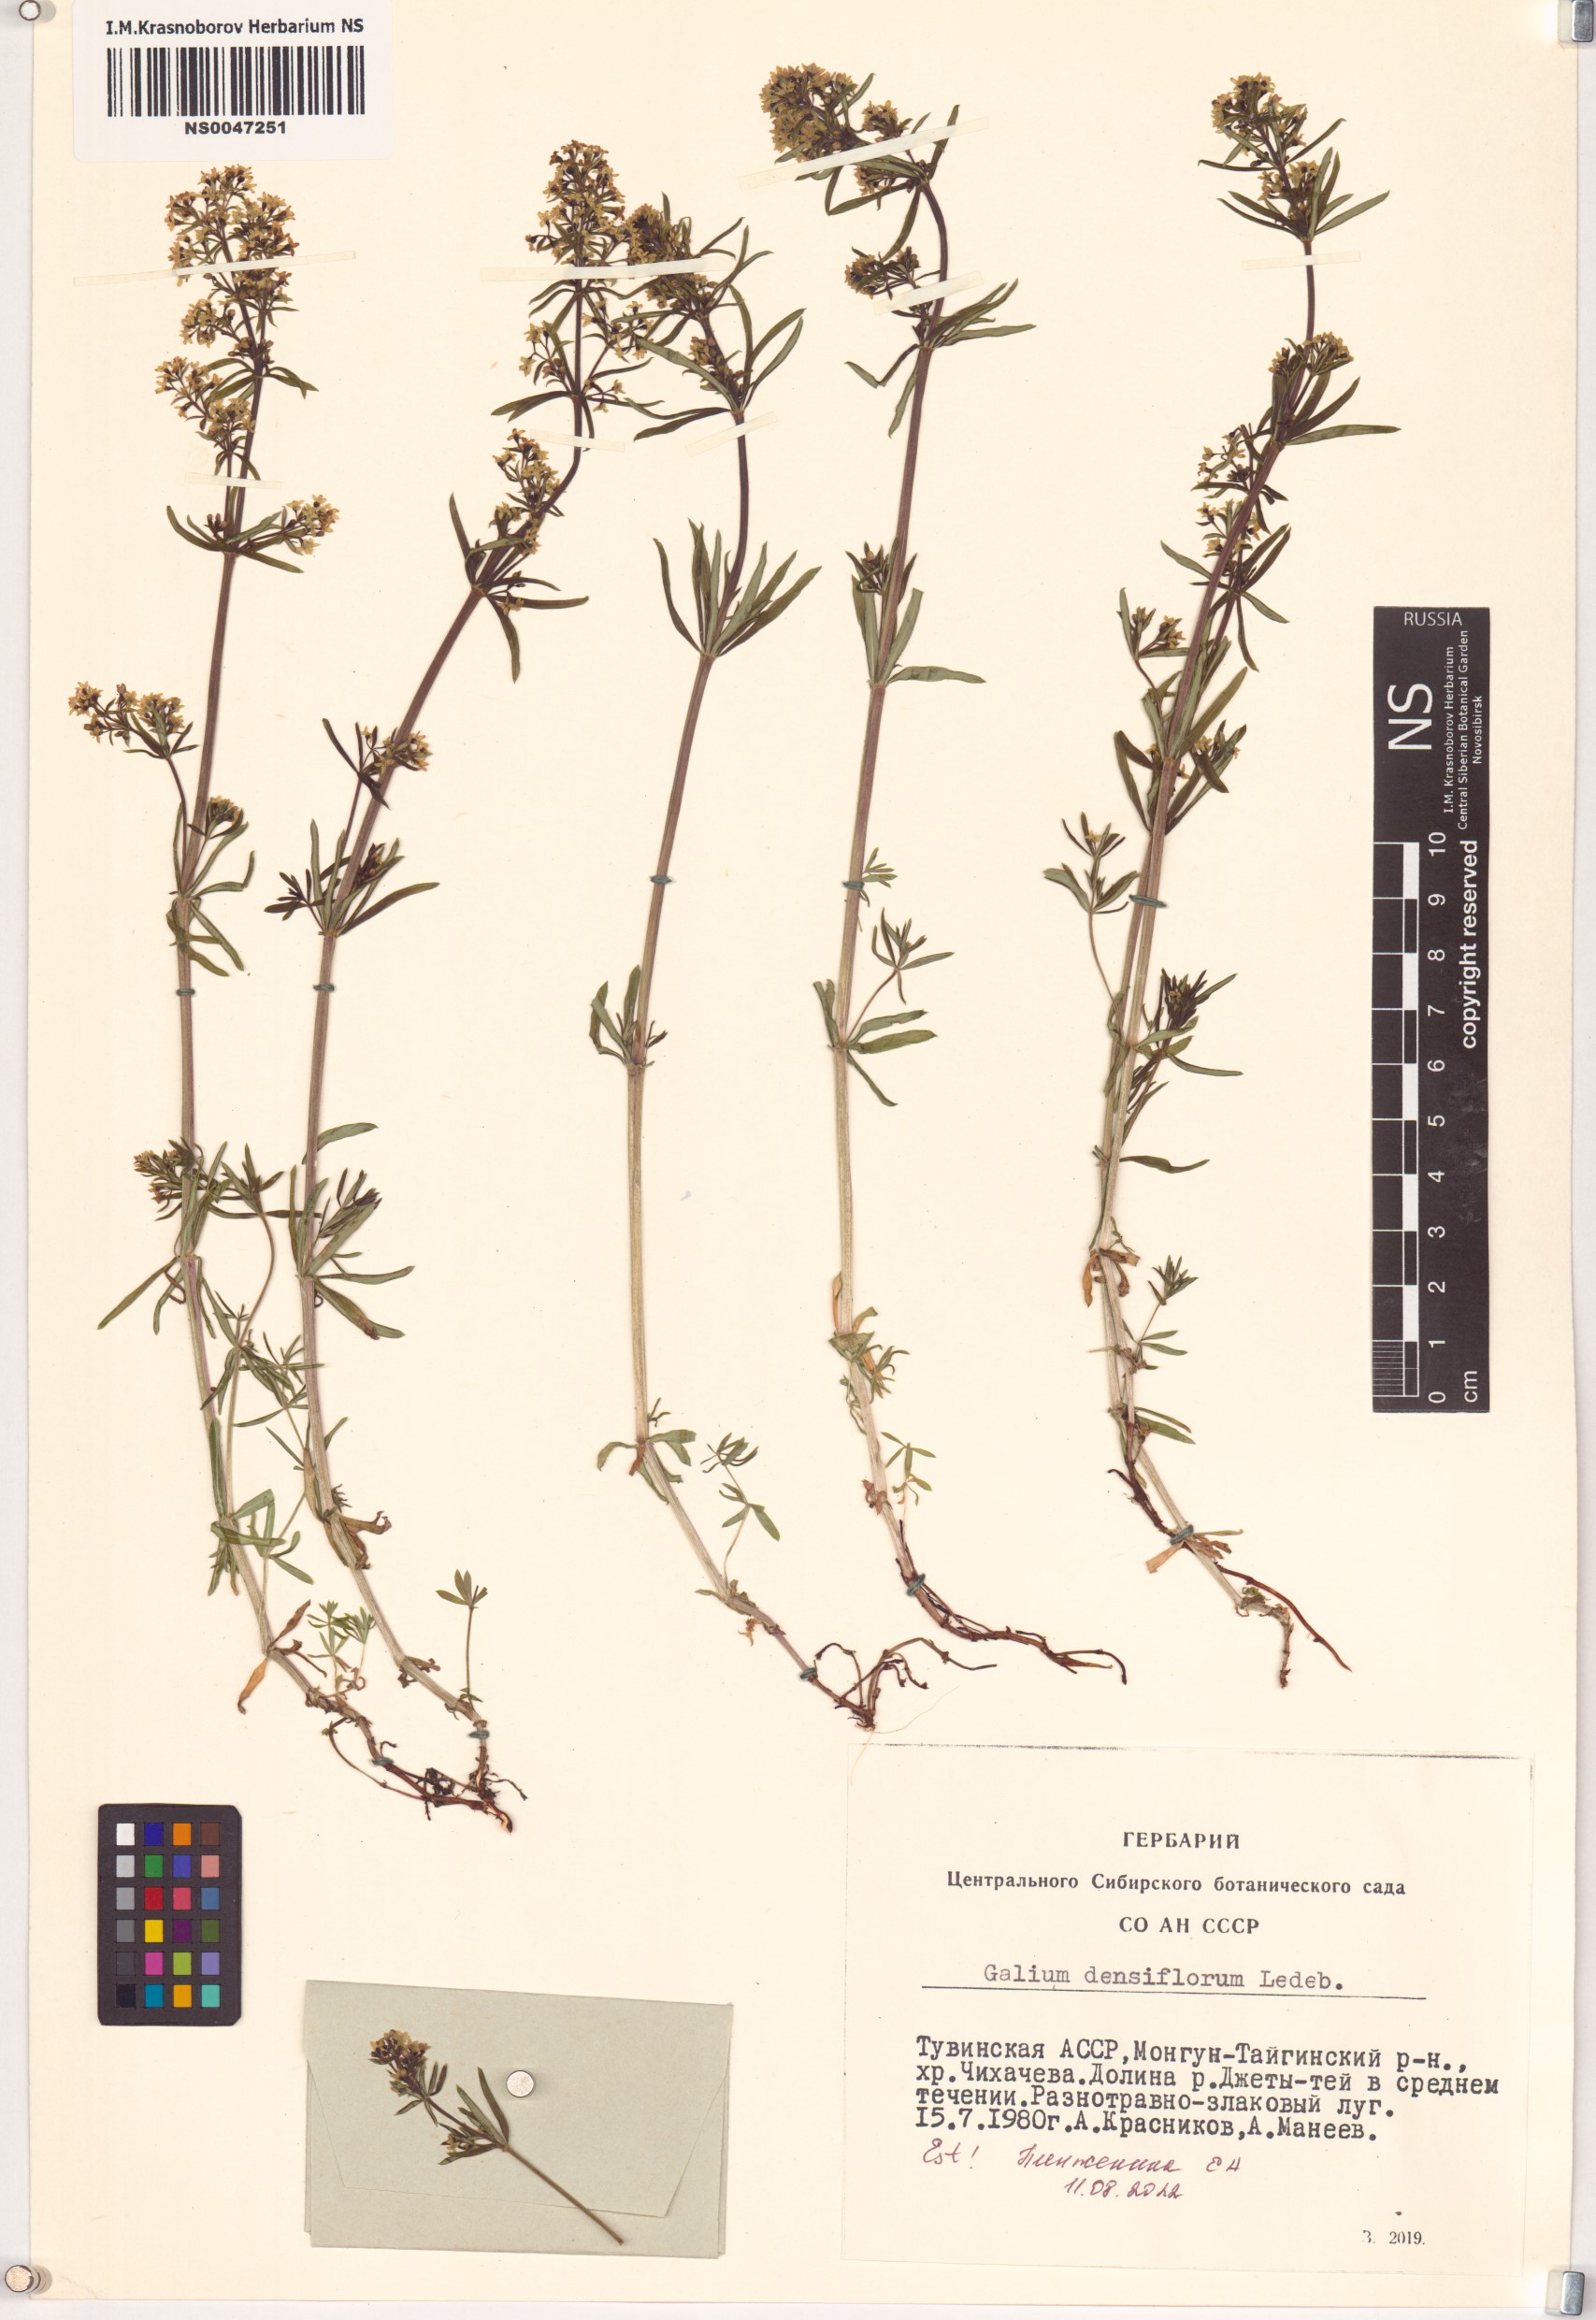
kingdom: Plantae
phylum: Tracheophyta
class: Magnoliopsida
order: Gentianales
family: Rubiaceae
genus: Galium
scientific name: Galium densiflorum
